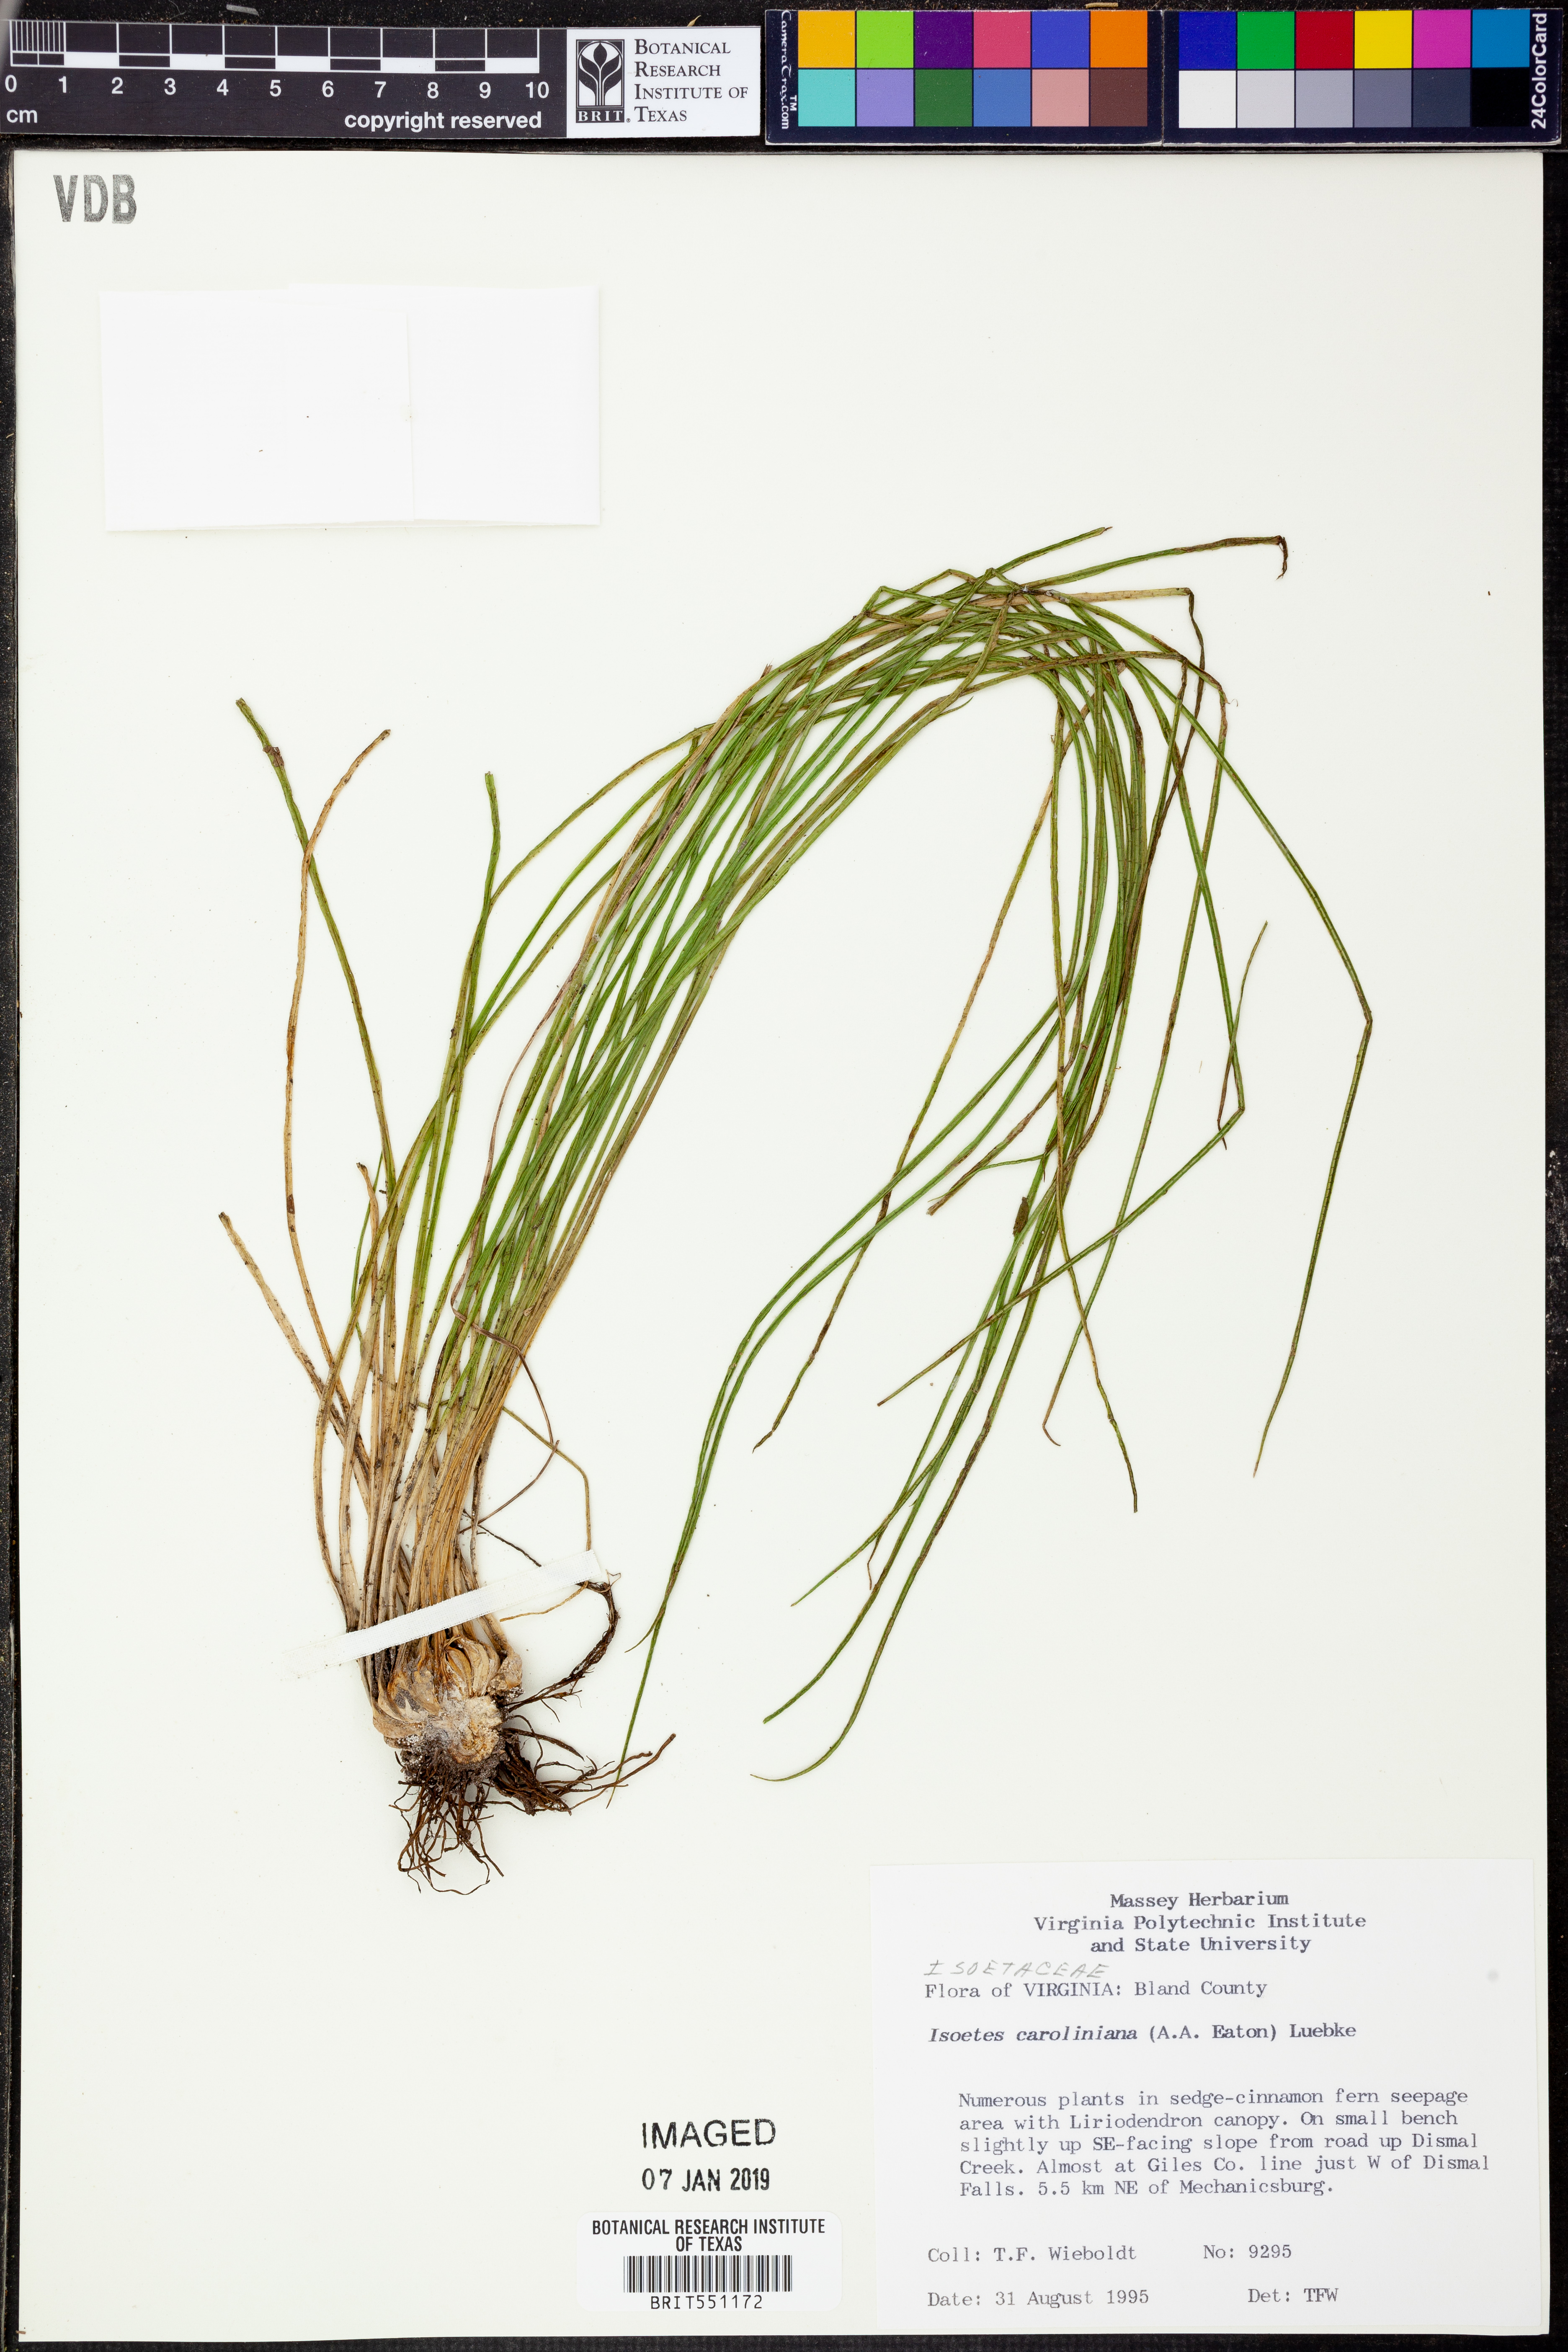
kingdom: Plantae
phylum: Tracheophyta
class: Lycopodiopsida
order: Isoetales
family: Isoetaceae
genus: Isoetes
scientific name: Isoetes
